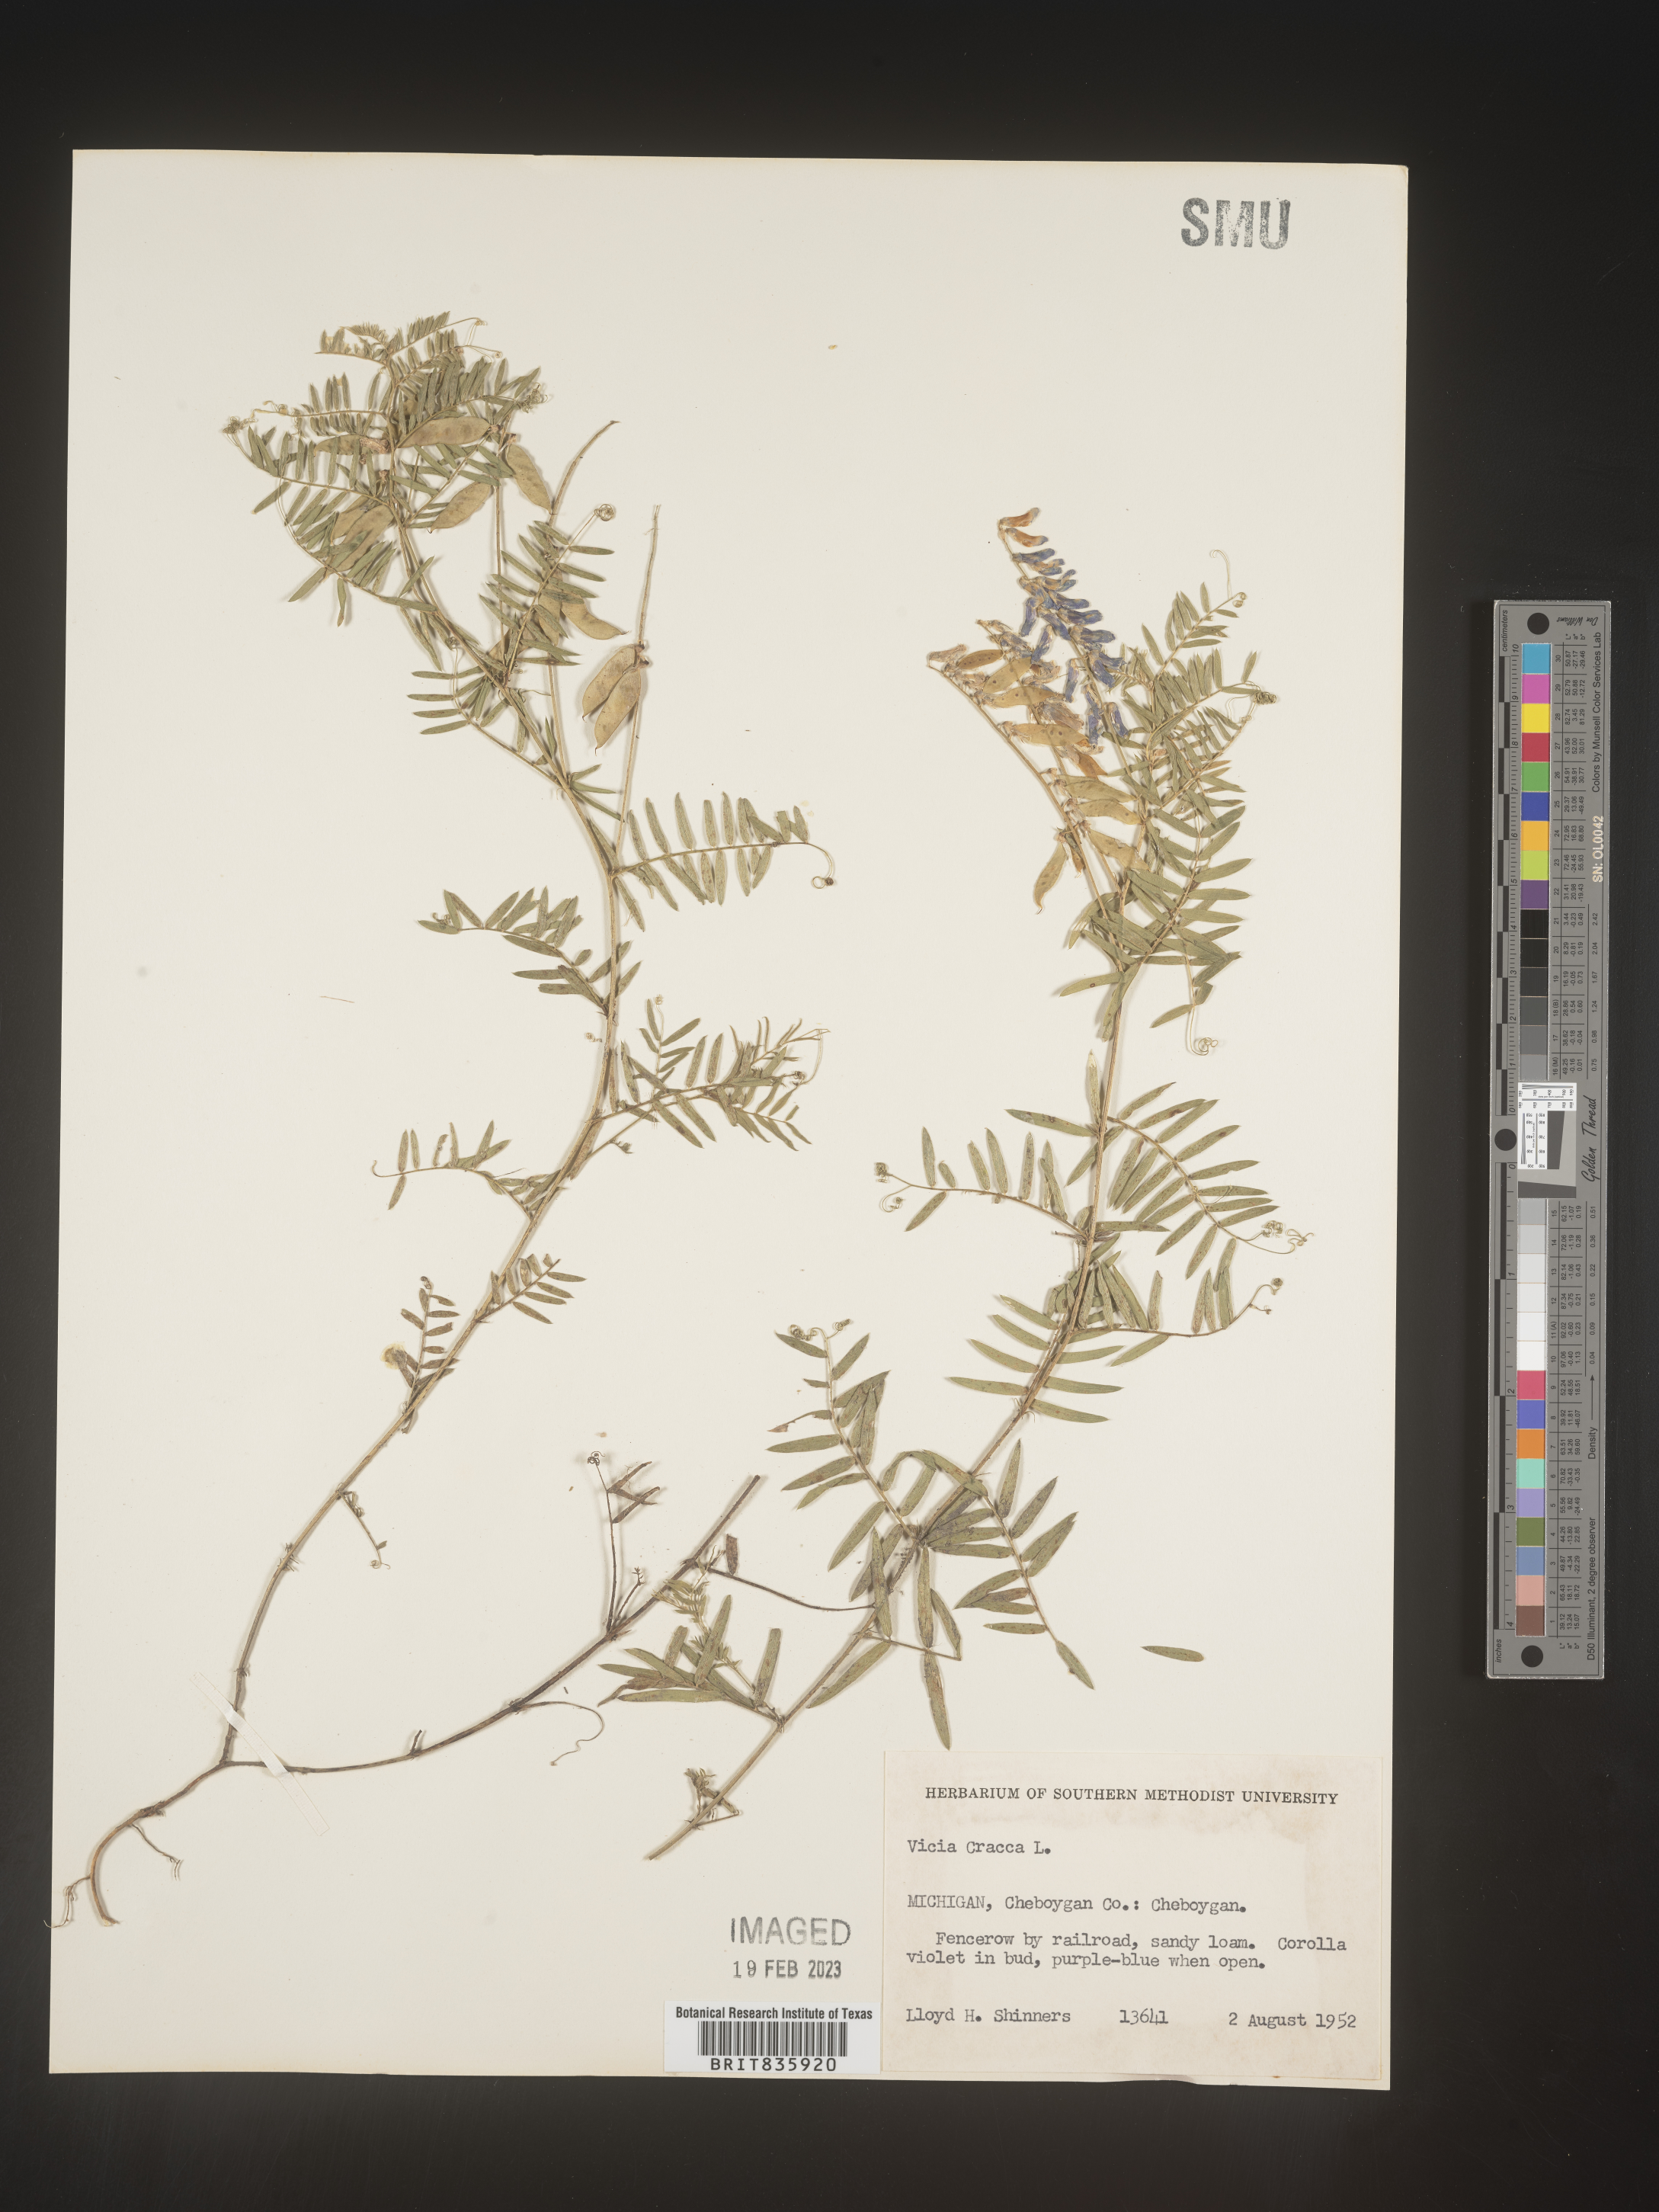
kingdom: Plantae
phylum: Tracheophyta
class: Magnoliopsida
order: Fabales
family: Fabaceae
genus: Vicia
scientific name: Vicia cracca
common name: Bird vetch
